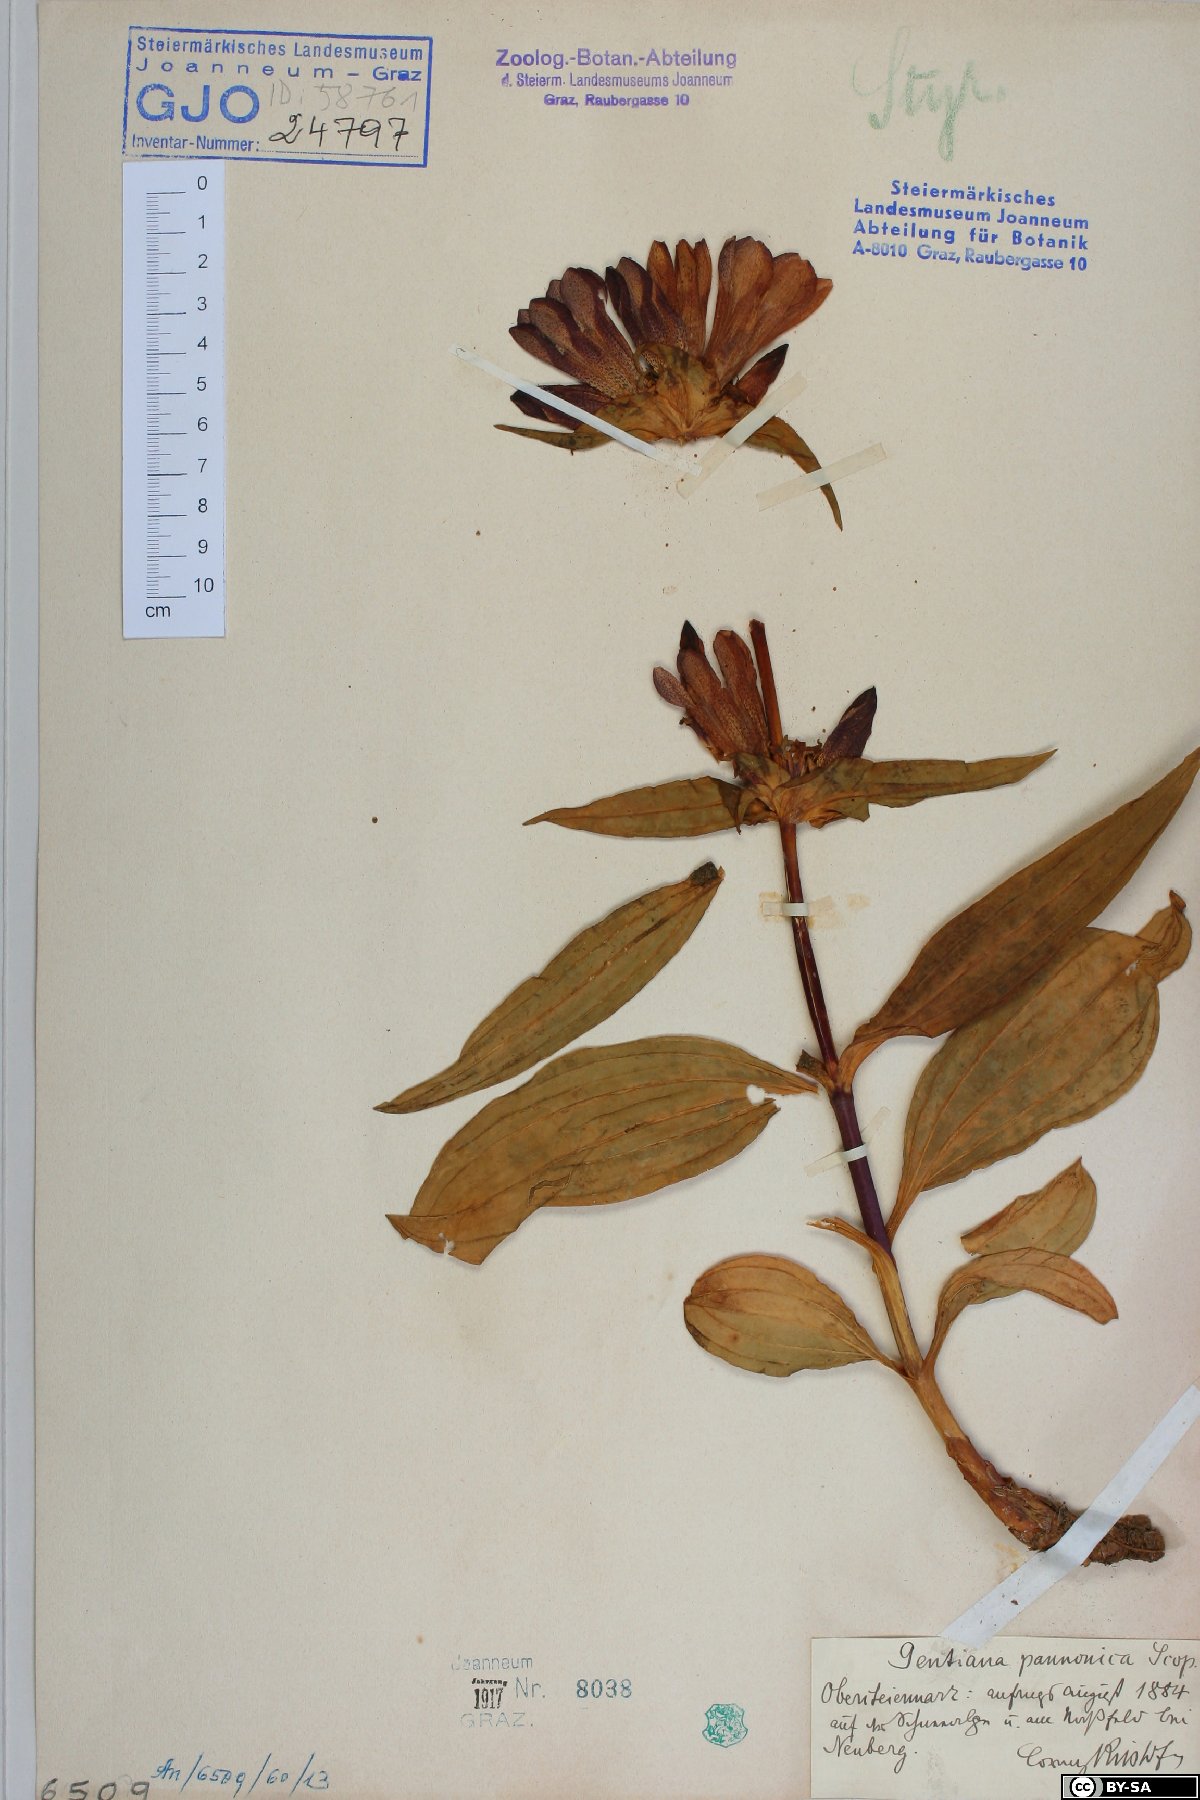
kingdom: Plantae
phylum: Tracheophyta
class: Magnoliopsida
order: Gentianales
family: Gentianaceae
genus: Gentiana
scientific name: Gentiana pannonica
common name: Hungarian gentian
